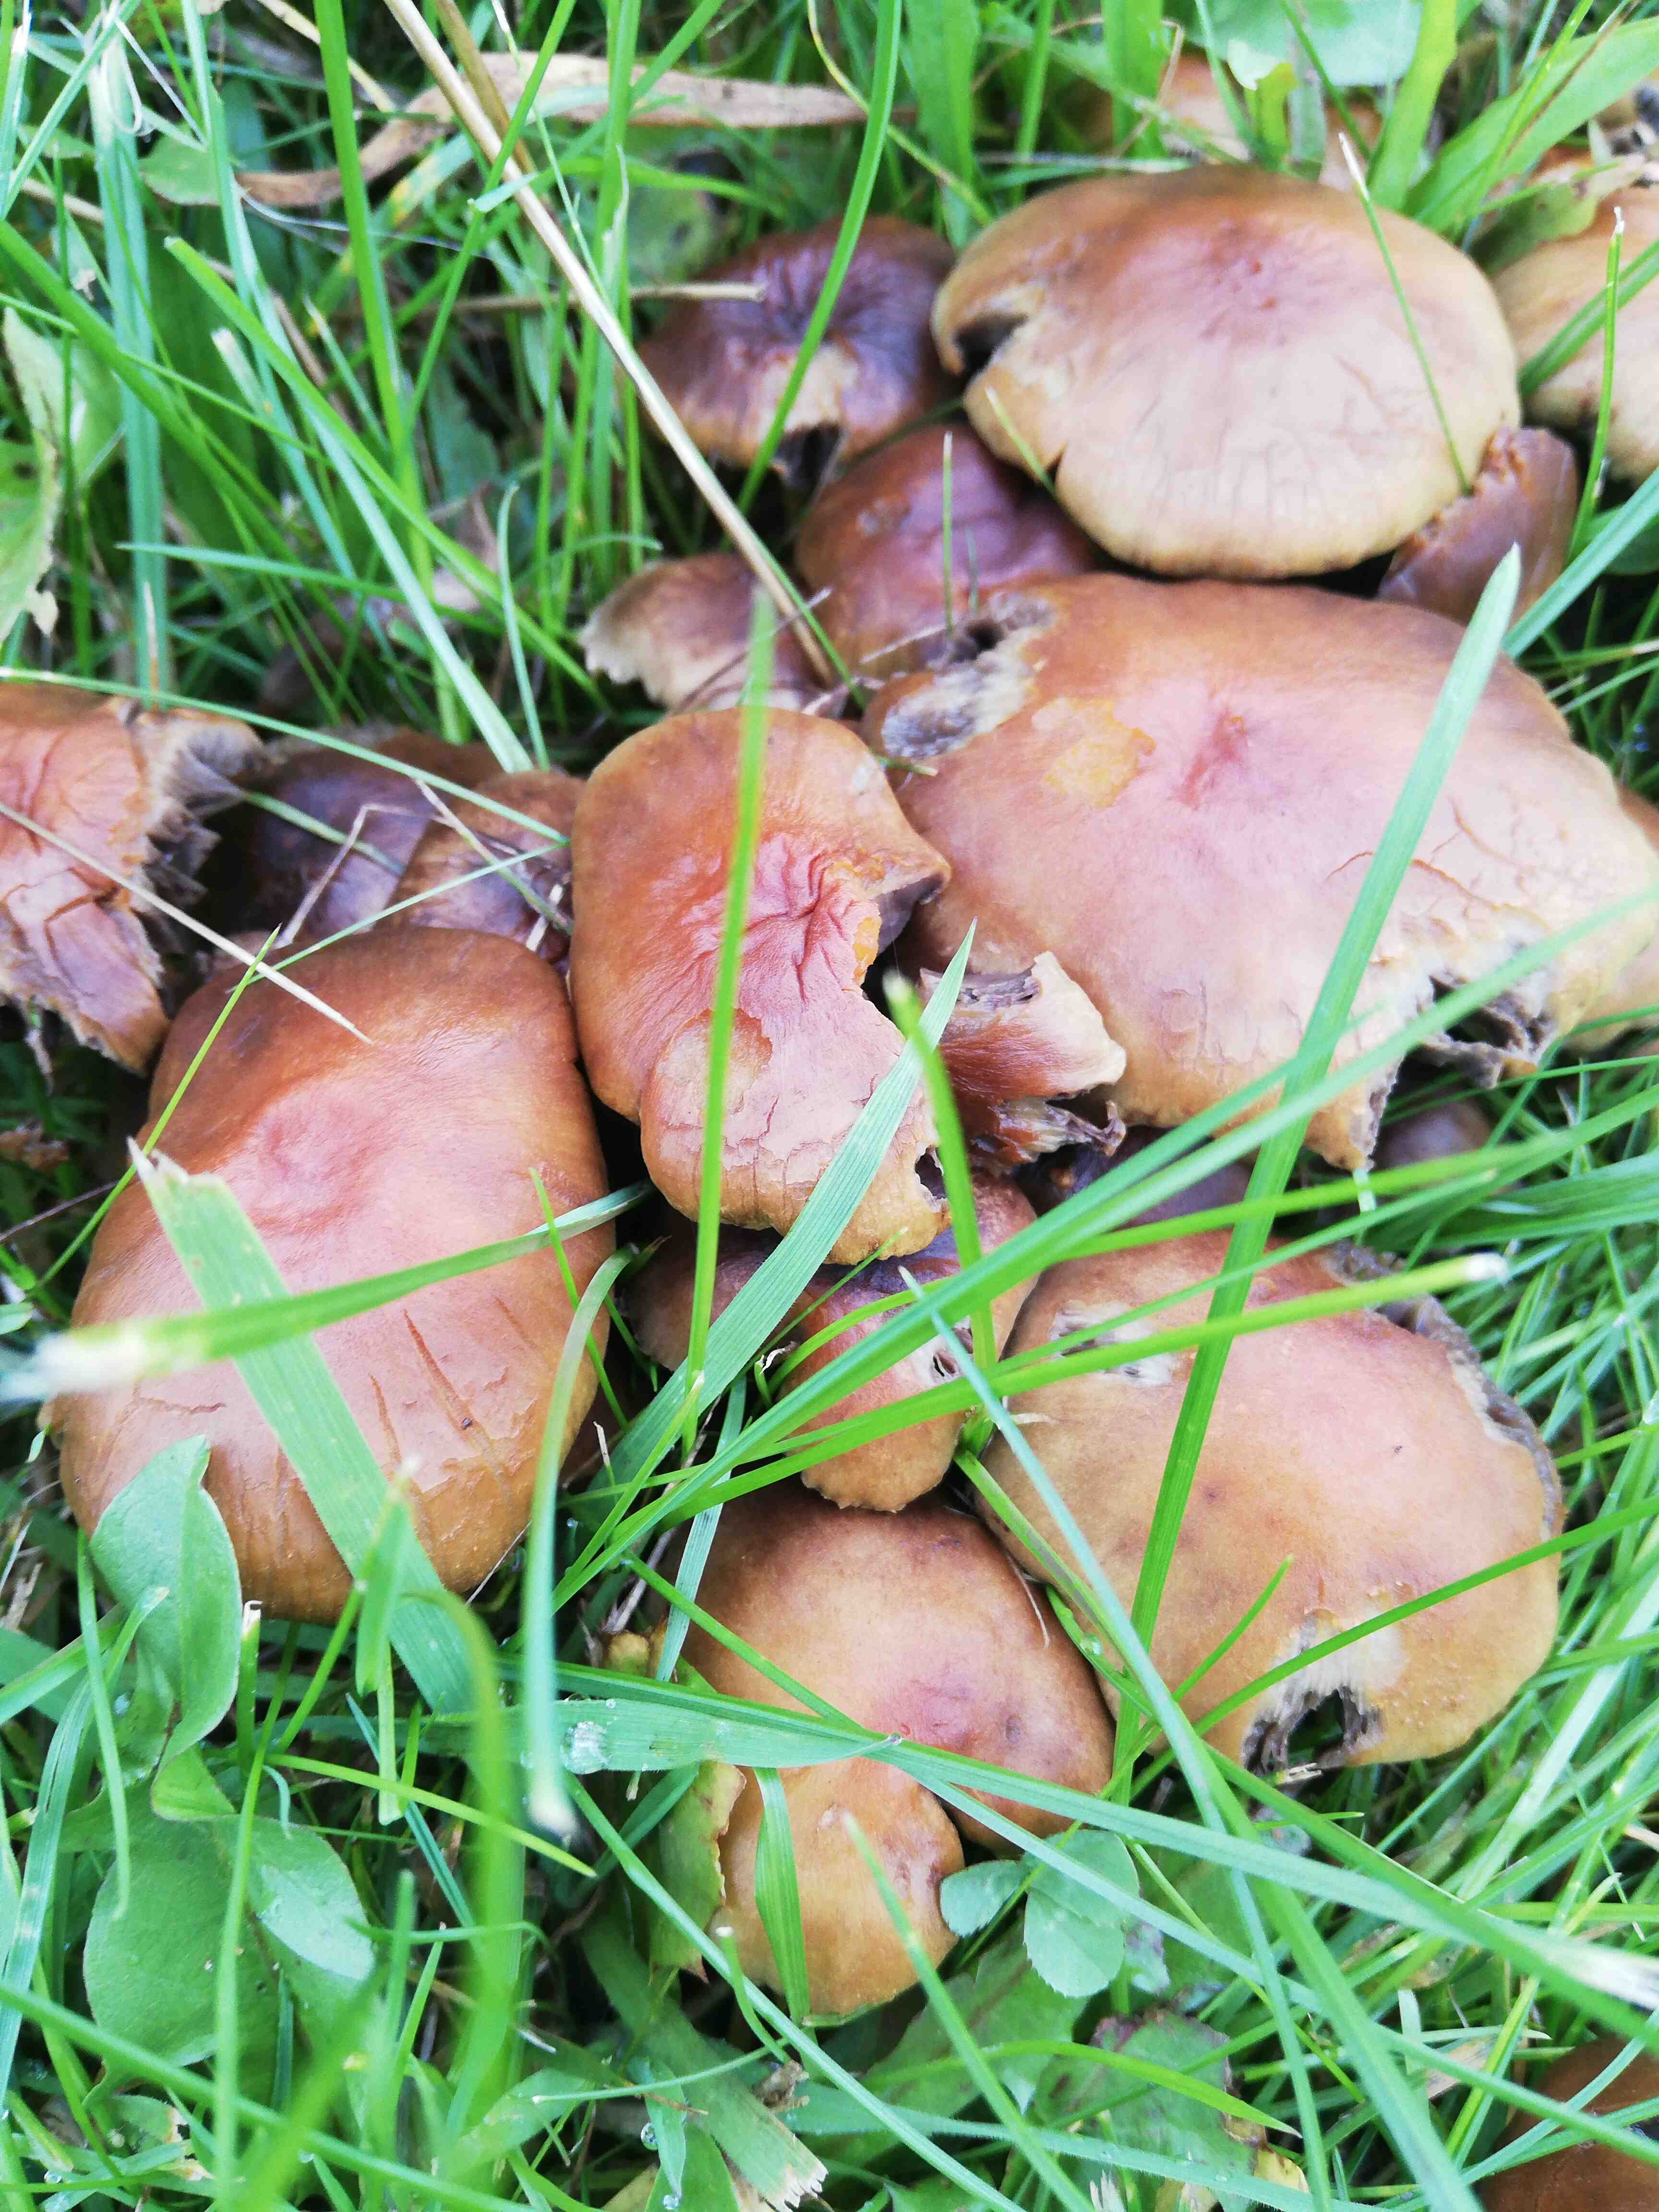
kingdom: Fungi
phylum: Basidiomycota
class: Agaricomycetes
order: Agaricales
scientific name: Agaricales
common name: champignonordenen
